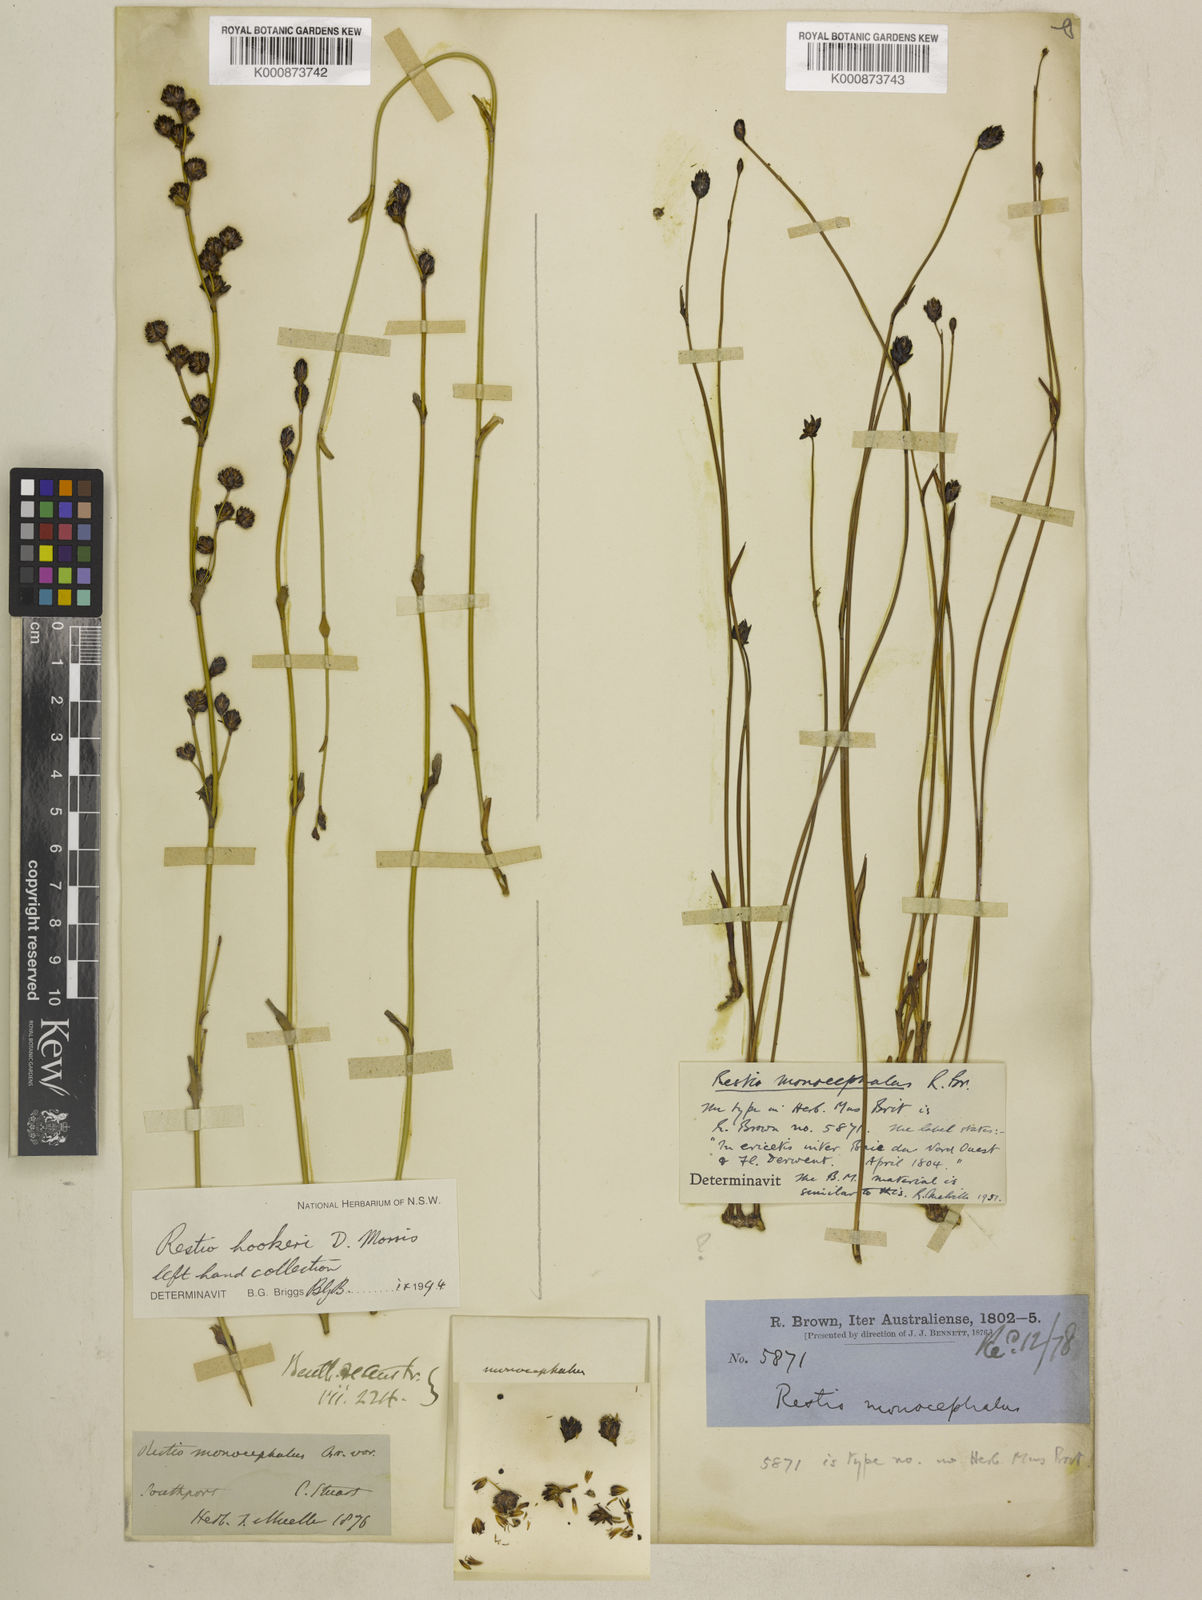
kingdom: Plantae
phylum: Tracheophyta
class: Liliopsida
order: Poales
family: Restionaceae
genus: Chordifex
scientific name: Chordifex monocephalus
